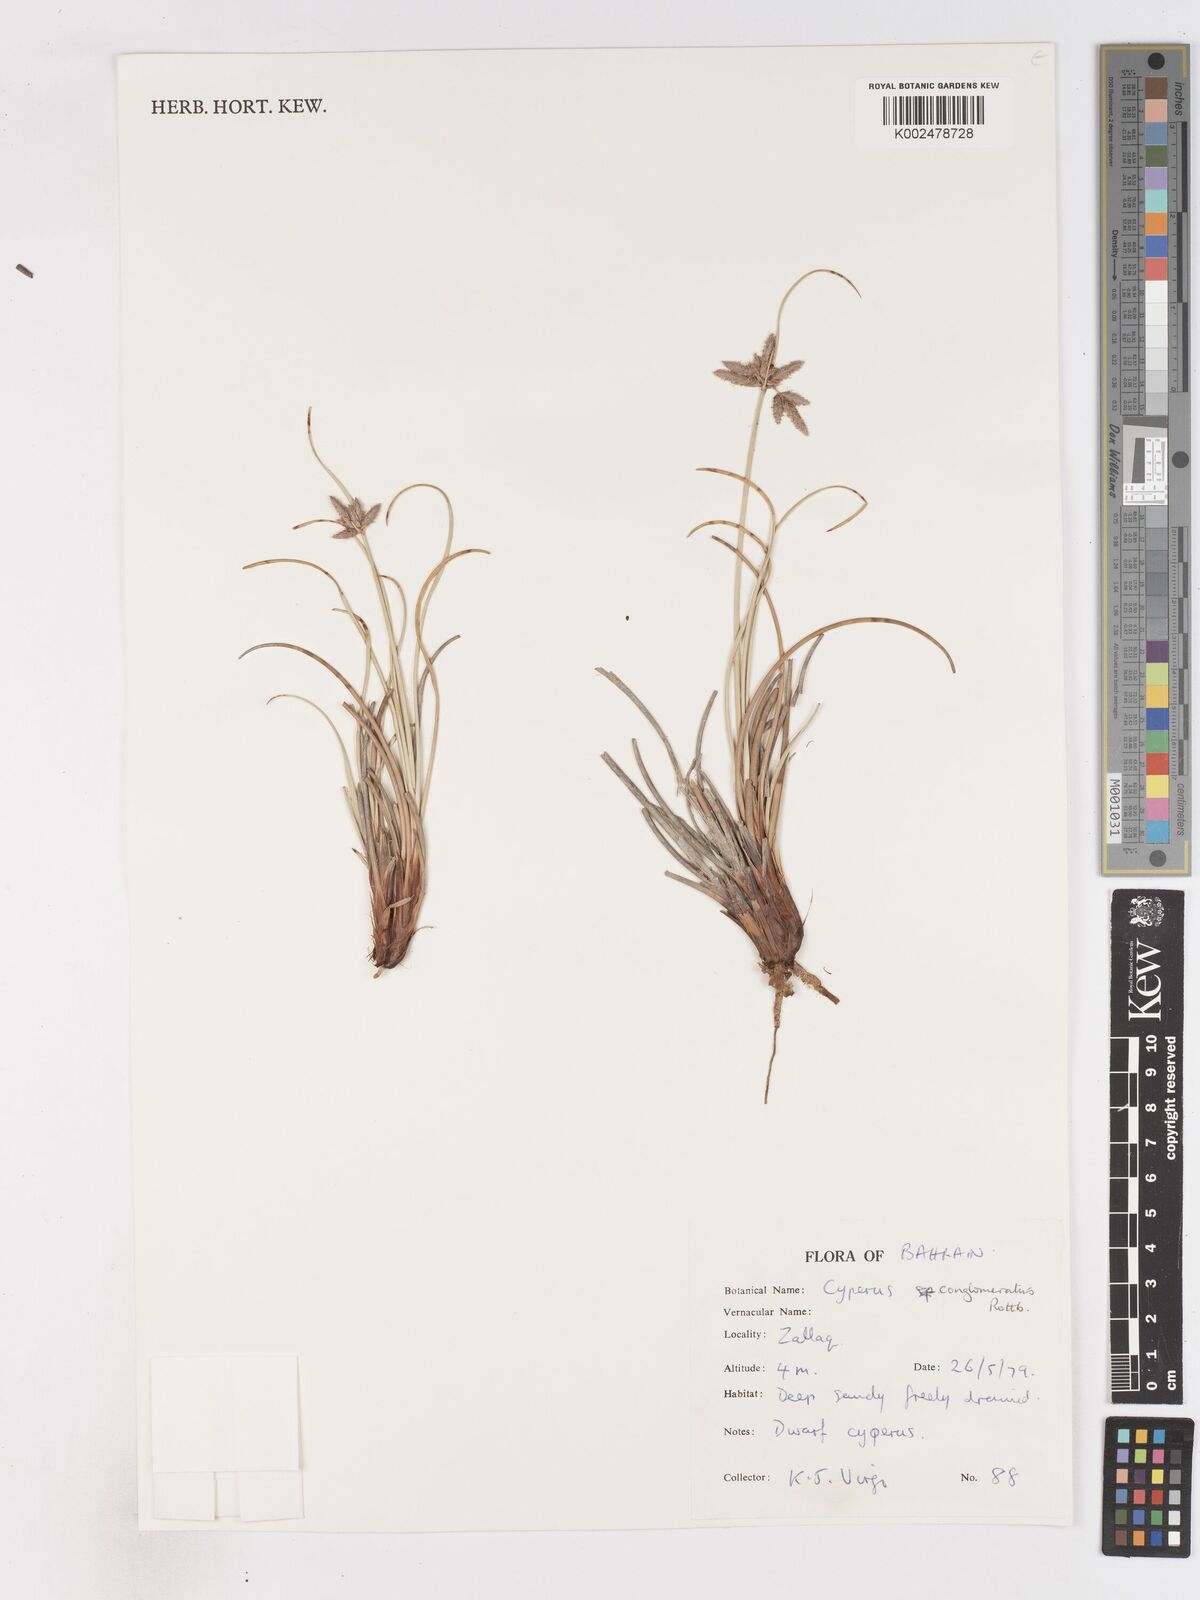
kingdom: Plantae
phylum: Tracheophyta
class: Liliopsida
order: Poales
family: Cyperaceae
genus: Cyperus
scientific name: Cyperus conglomeratus
